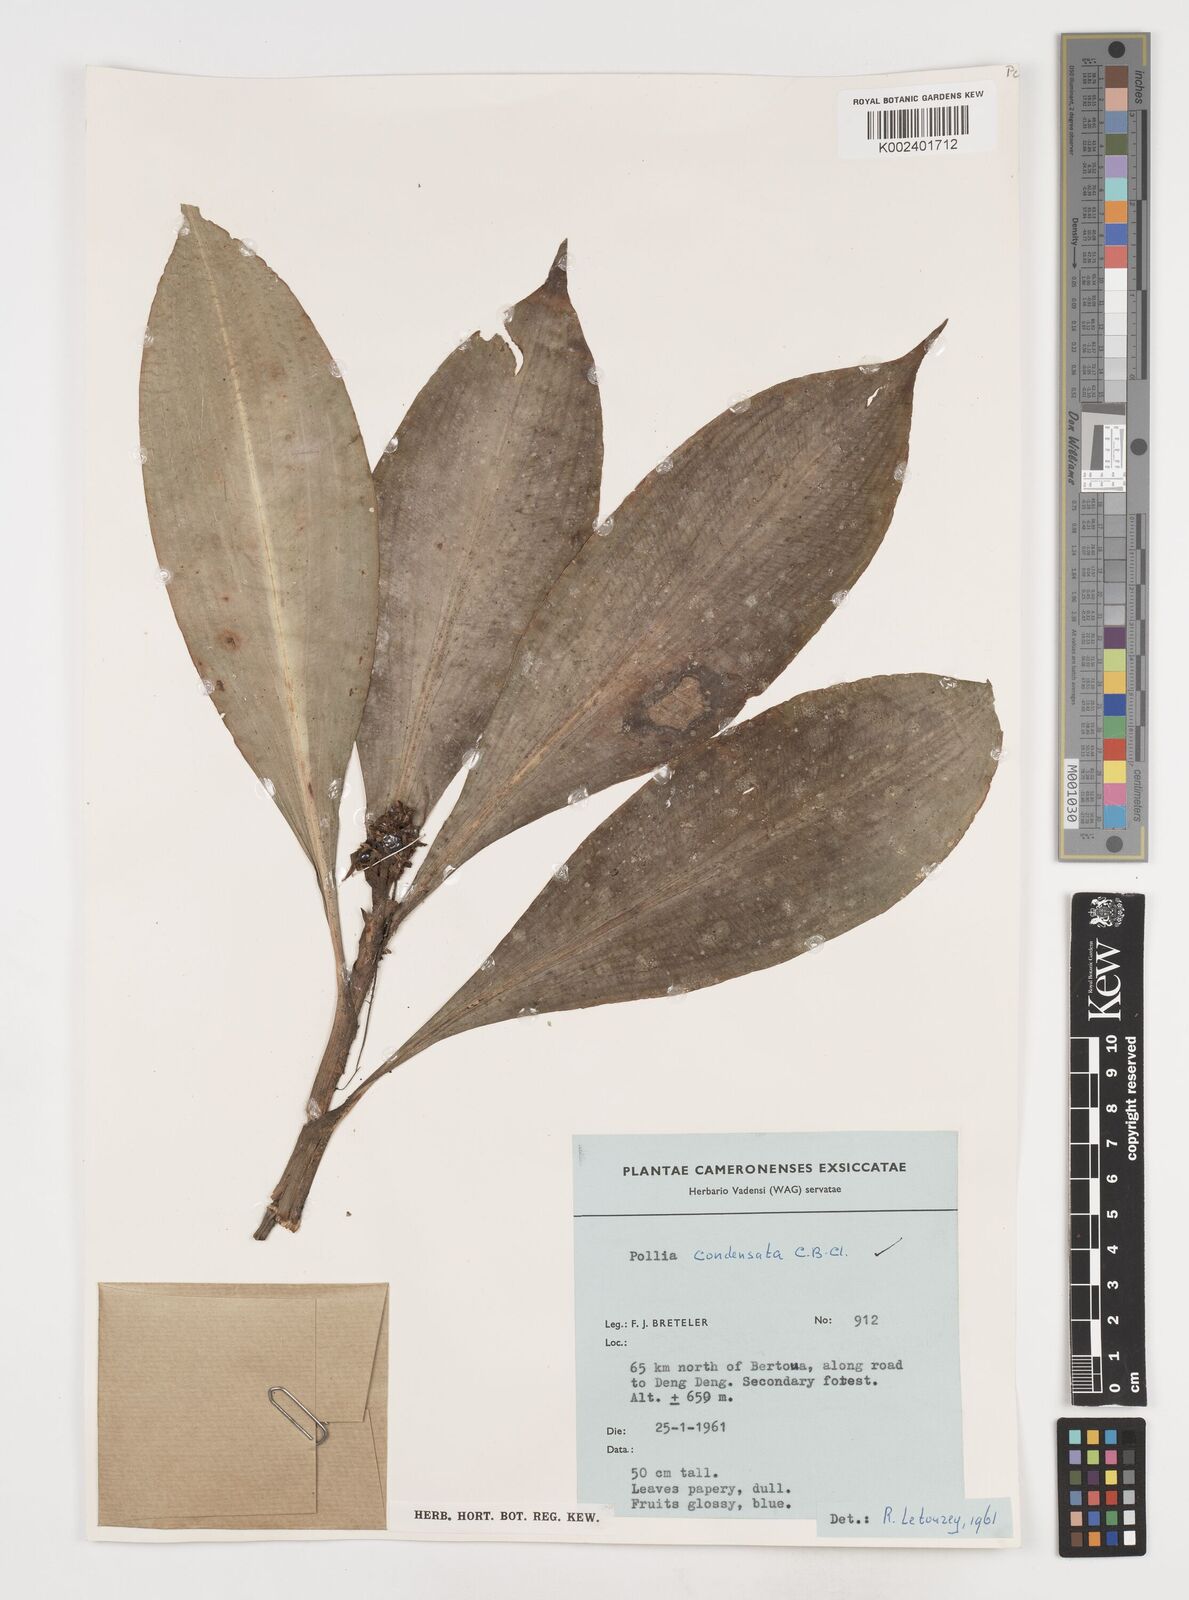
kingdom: Plantae
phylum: Tracheophyta
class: Liliopsida
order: Commelinales
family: Commelinaceae
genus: Pollia
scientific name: Pollia condensata
